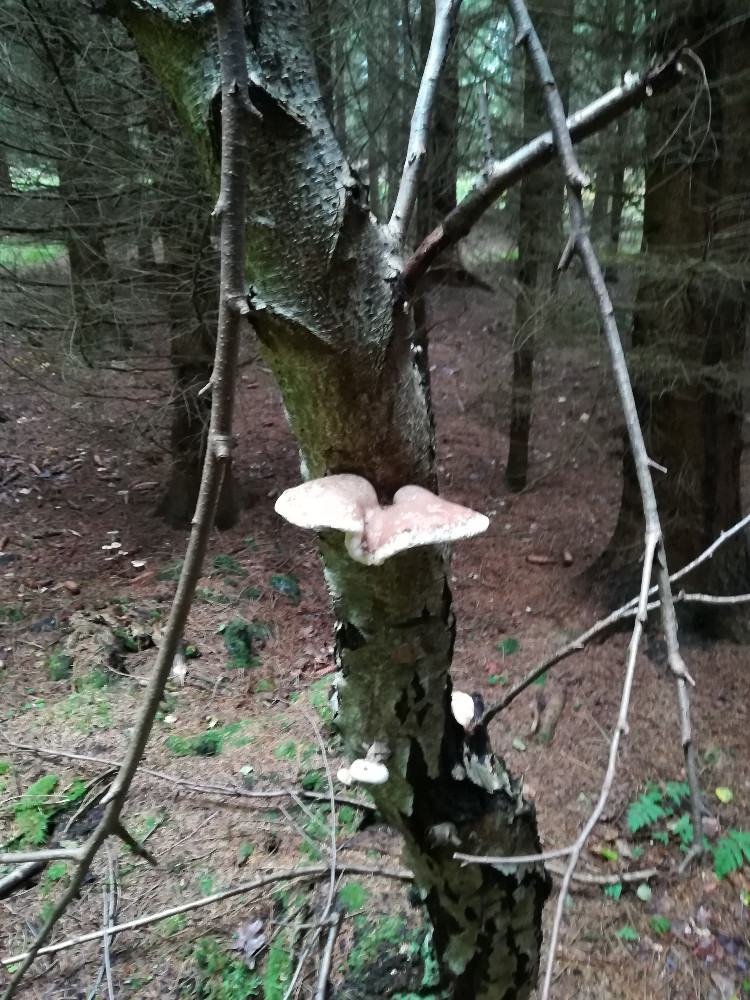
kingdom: Fungi
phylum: Basidiomycota
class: Agaricomycetes
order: Polyporales
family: Fomitopsidaceae
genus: Fomitopsis
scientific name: Fomitopsis betulina
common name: birkeporesvamp
